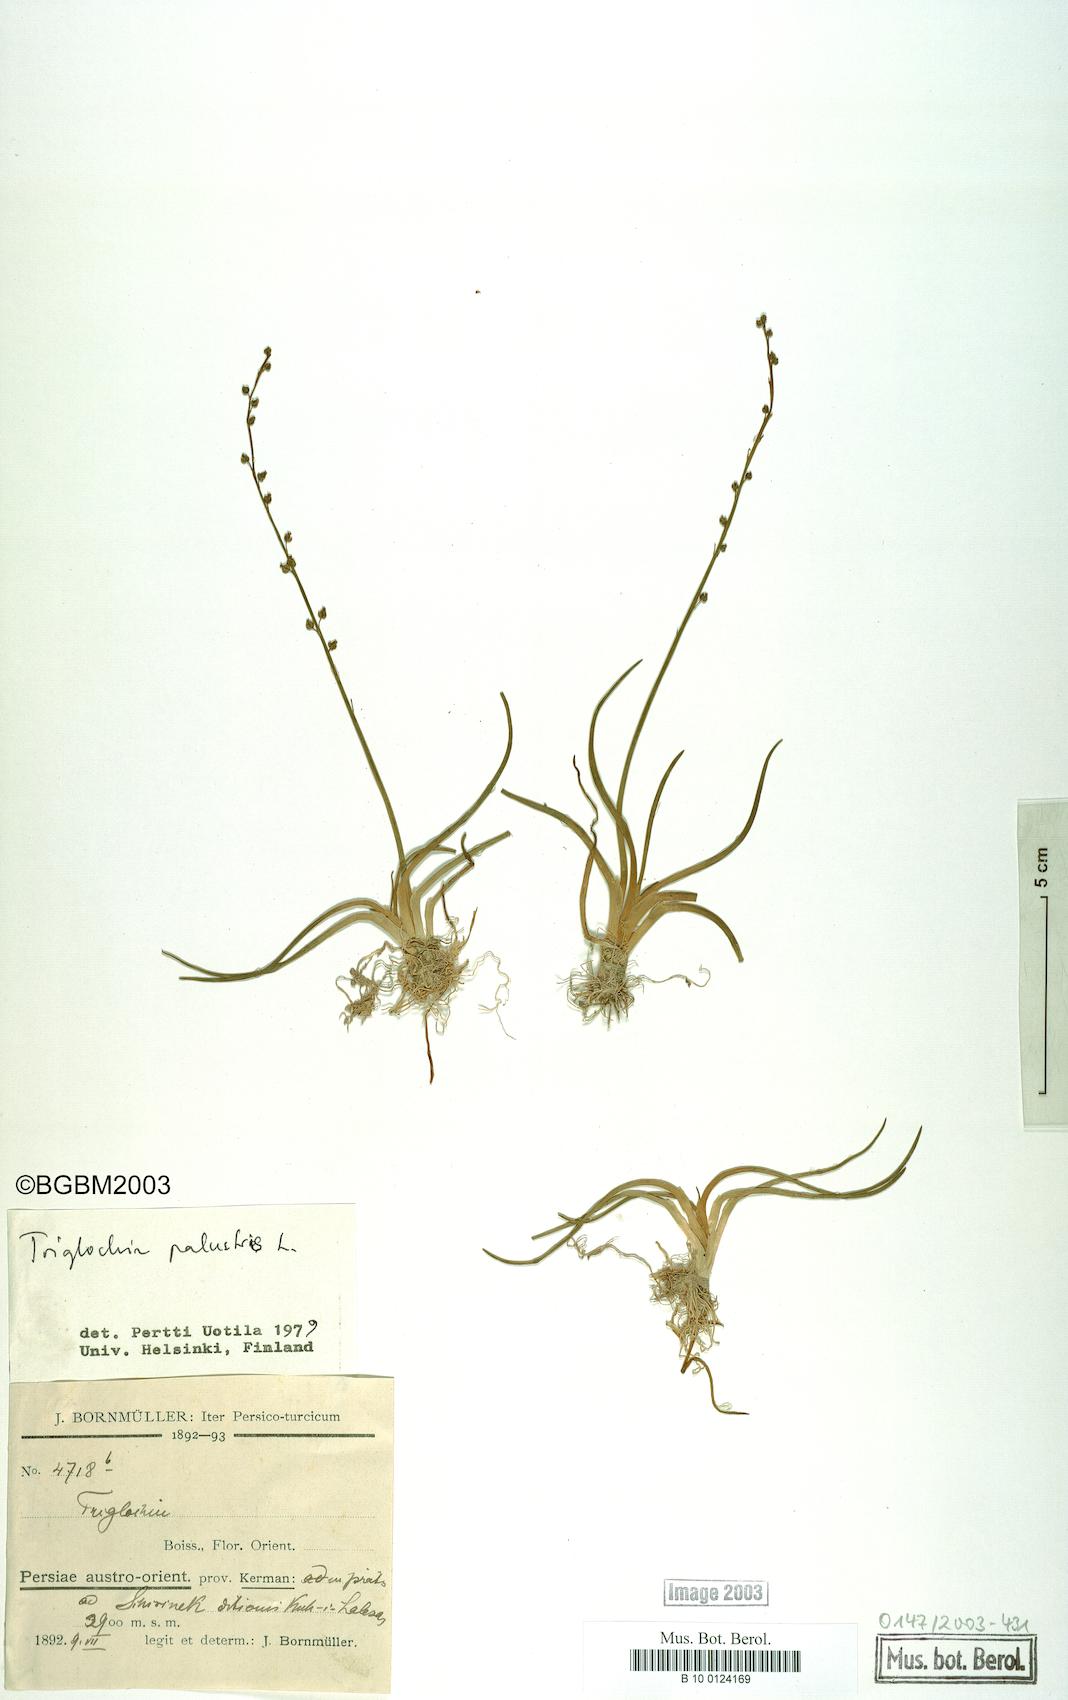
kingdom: Plantae
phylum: Tracheophyta
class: Liliopsida
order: Alismatales
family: Juncaginaceae
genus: Triglochin
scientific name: Triglochin palustris
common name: Marsh arrowgrass
